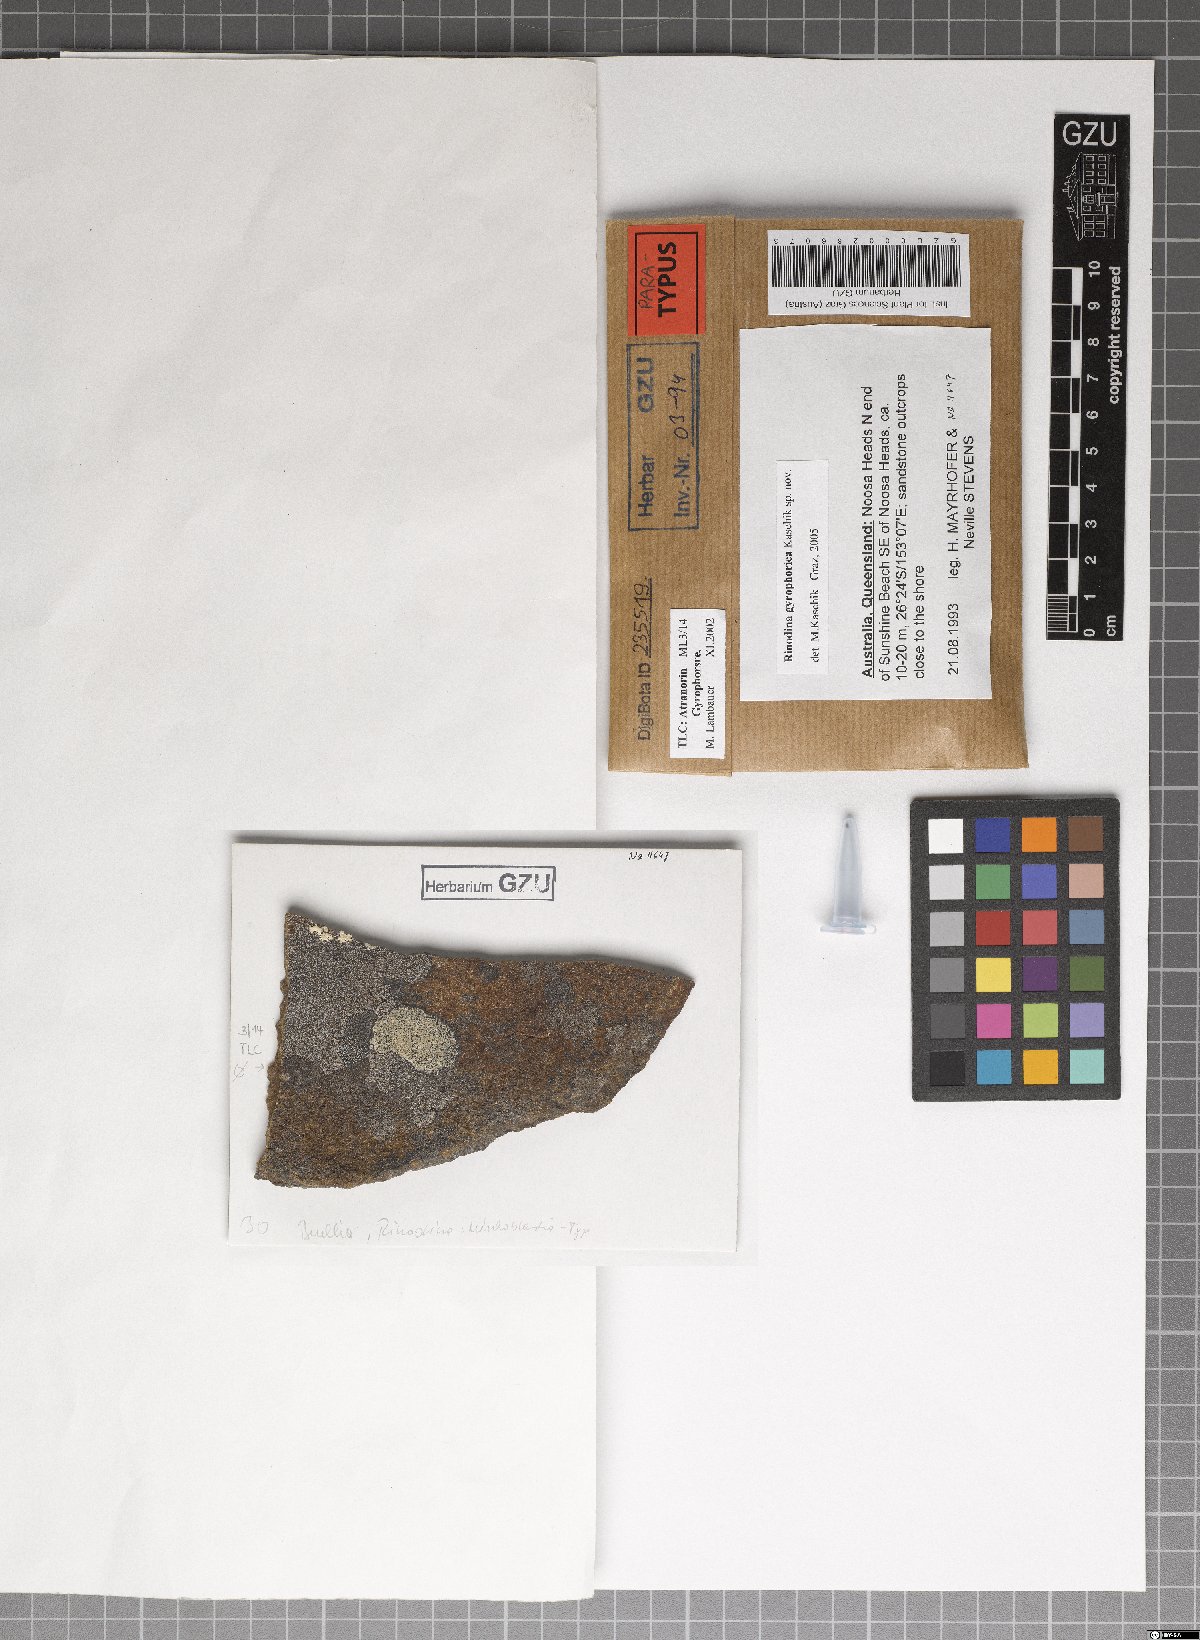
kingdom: Fungi
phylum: Ascomycota
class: Lecanoromycetes
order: Caliciales
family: Physciaceae
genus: Rinodina
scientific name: Rinodina gyrophorica
